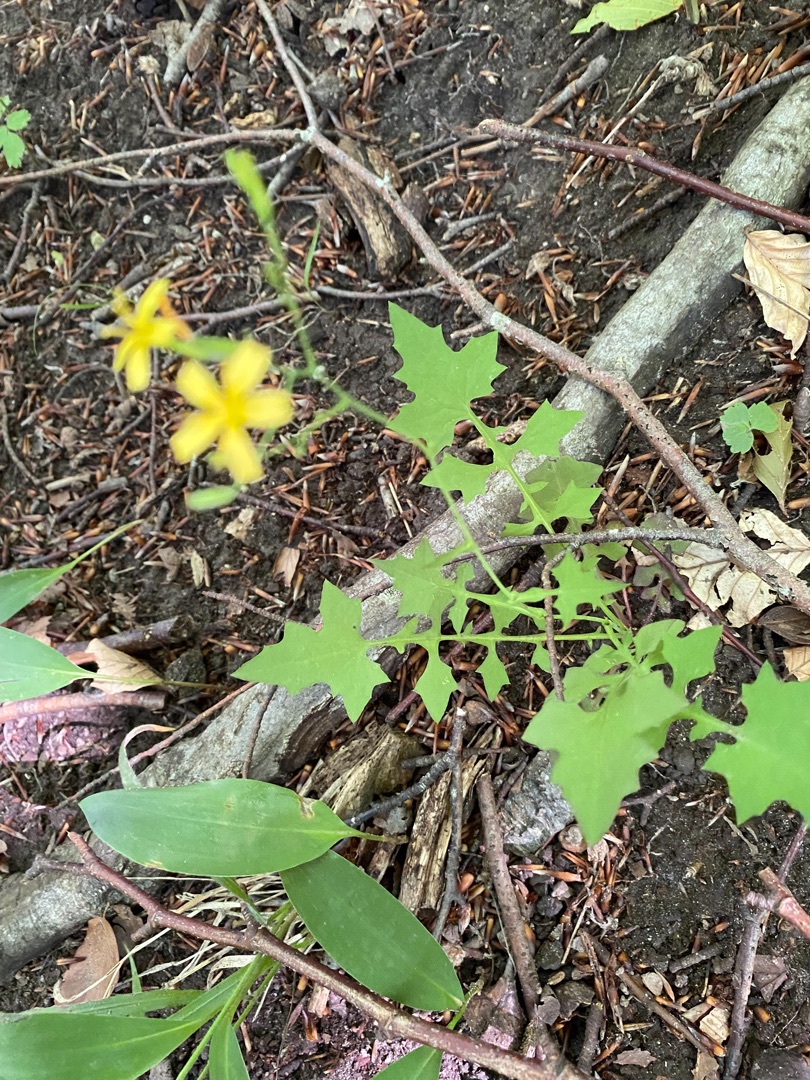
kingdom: Plantae
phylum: Tracheophyta
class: Magnoliopsida
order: Asterales
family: Asteraceae
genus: Mycelis
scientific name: Mycelis muralis
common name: Skov-salat
